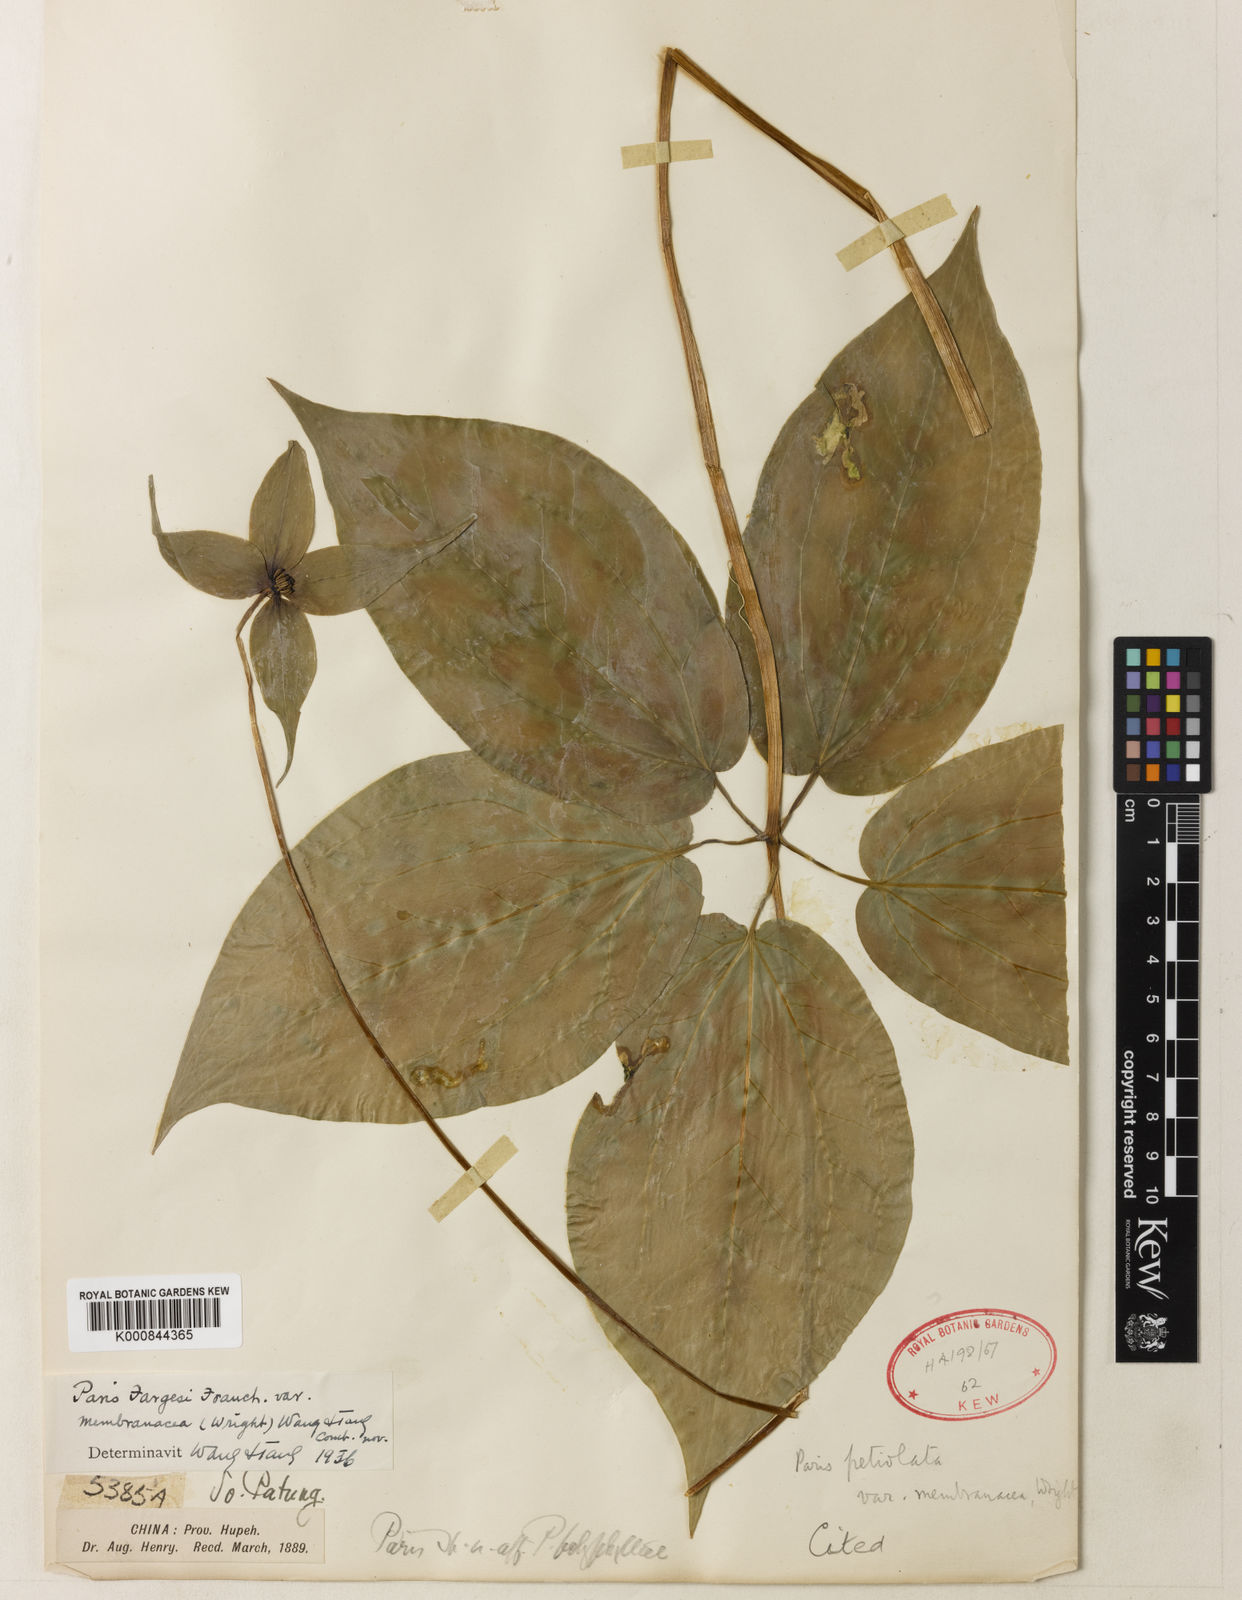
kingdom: Plantae
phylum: Tracheophyta
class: Liliopsida
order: Liliales
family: Melanthiaceae
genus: Paris
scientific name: Paris fargesii
